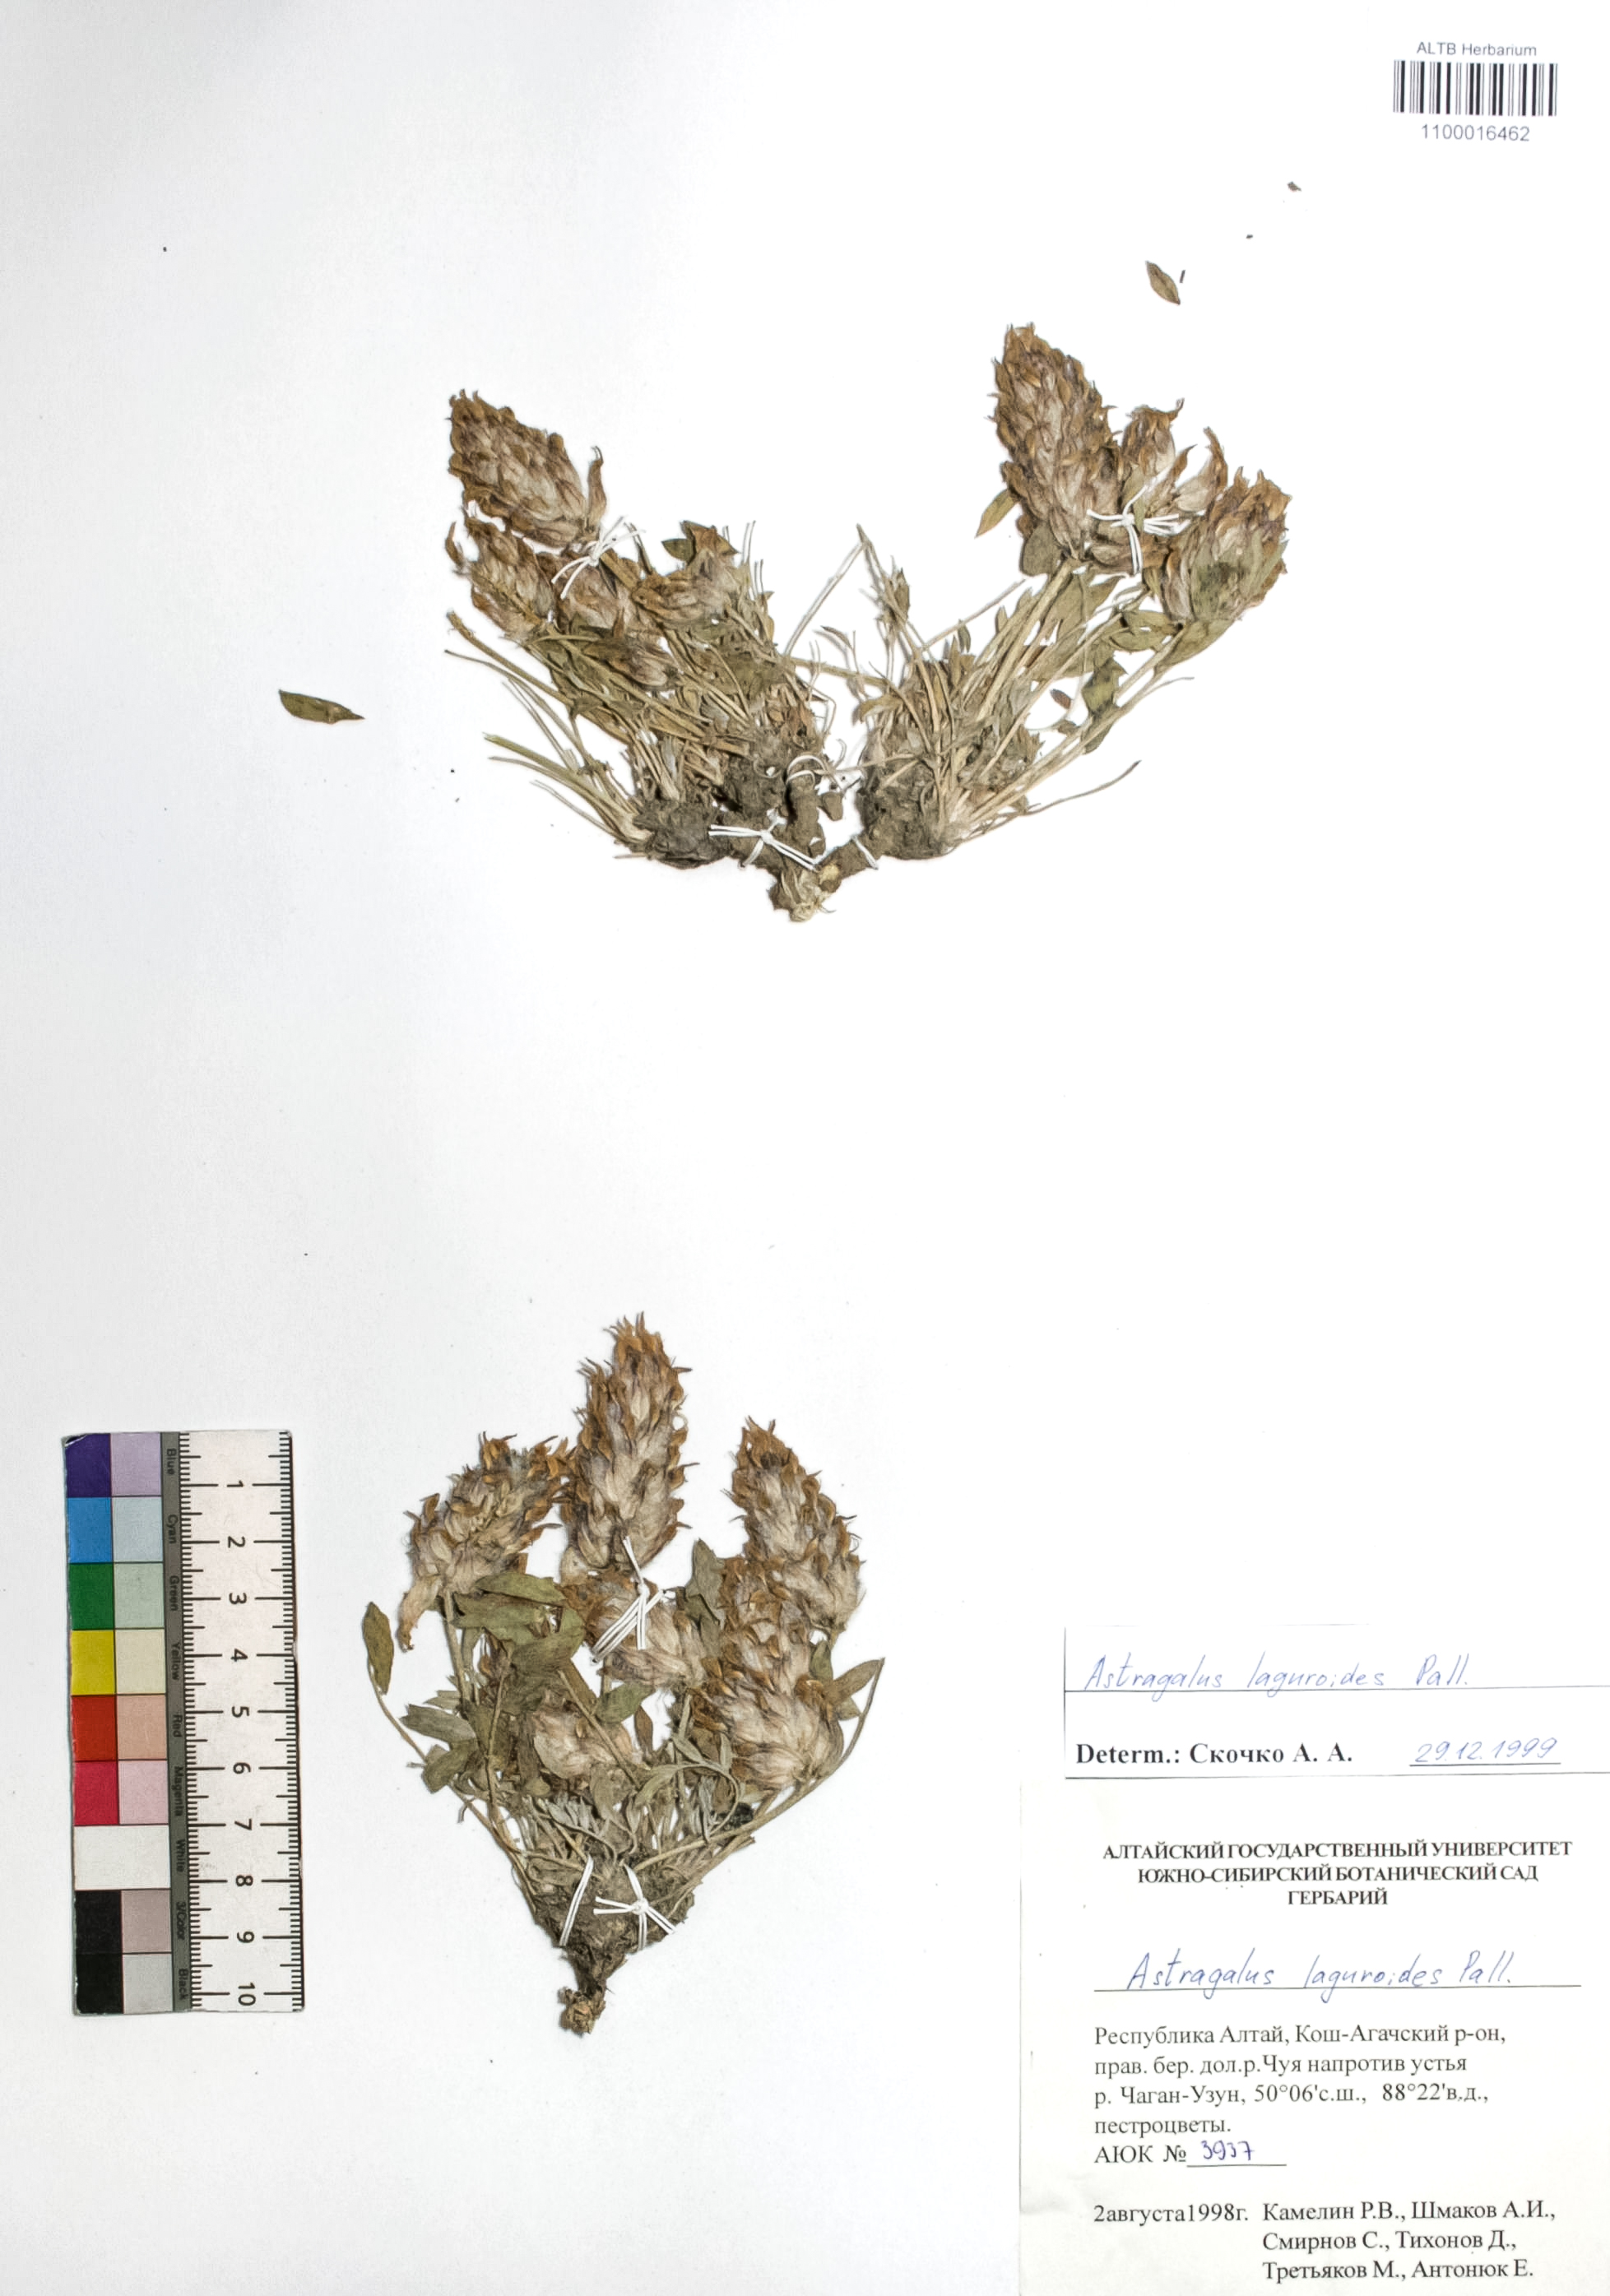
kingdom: Plantae
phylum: Tracheophyta
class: Magnoliopsida
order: Fabales
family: Fabaceae
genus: Astragalus
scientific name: Astragalus laguroides
